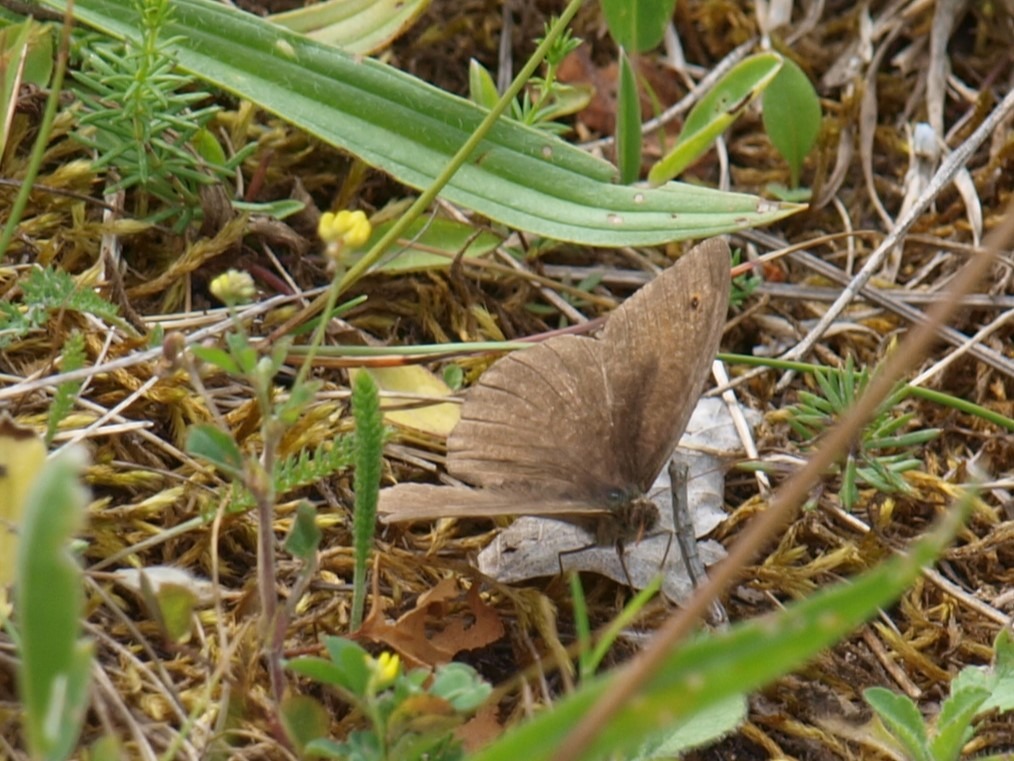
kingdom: Animalia
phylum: Arthropoda
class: Insecta
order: Lepidoptera
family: Nymphalidae
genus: Maniola
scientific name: Maniola jurtina
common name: Græsrandøje
